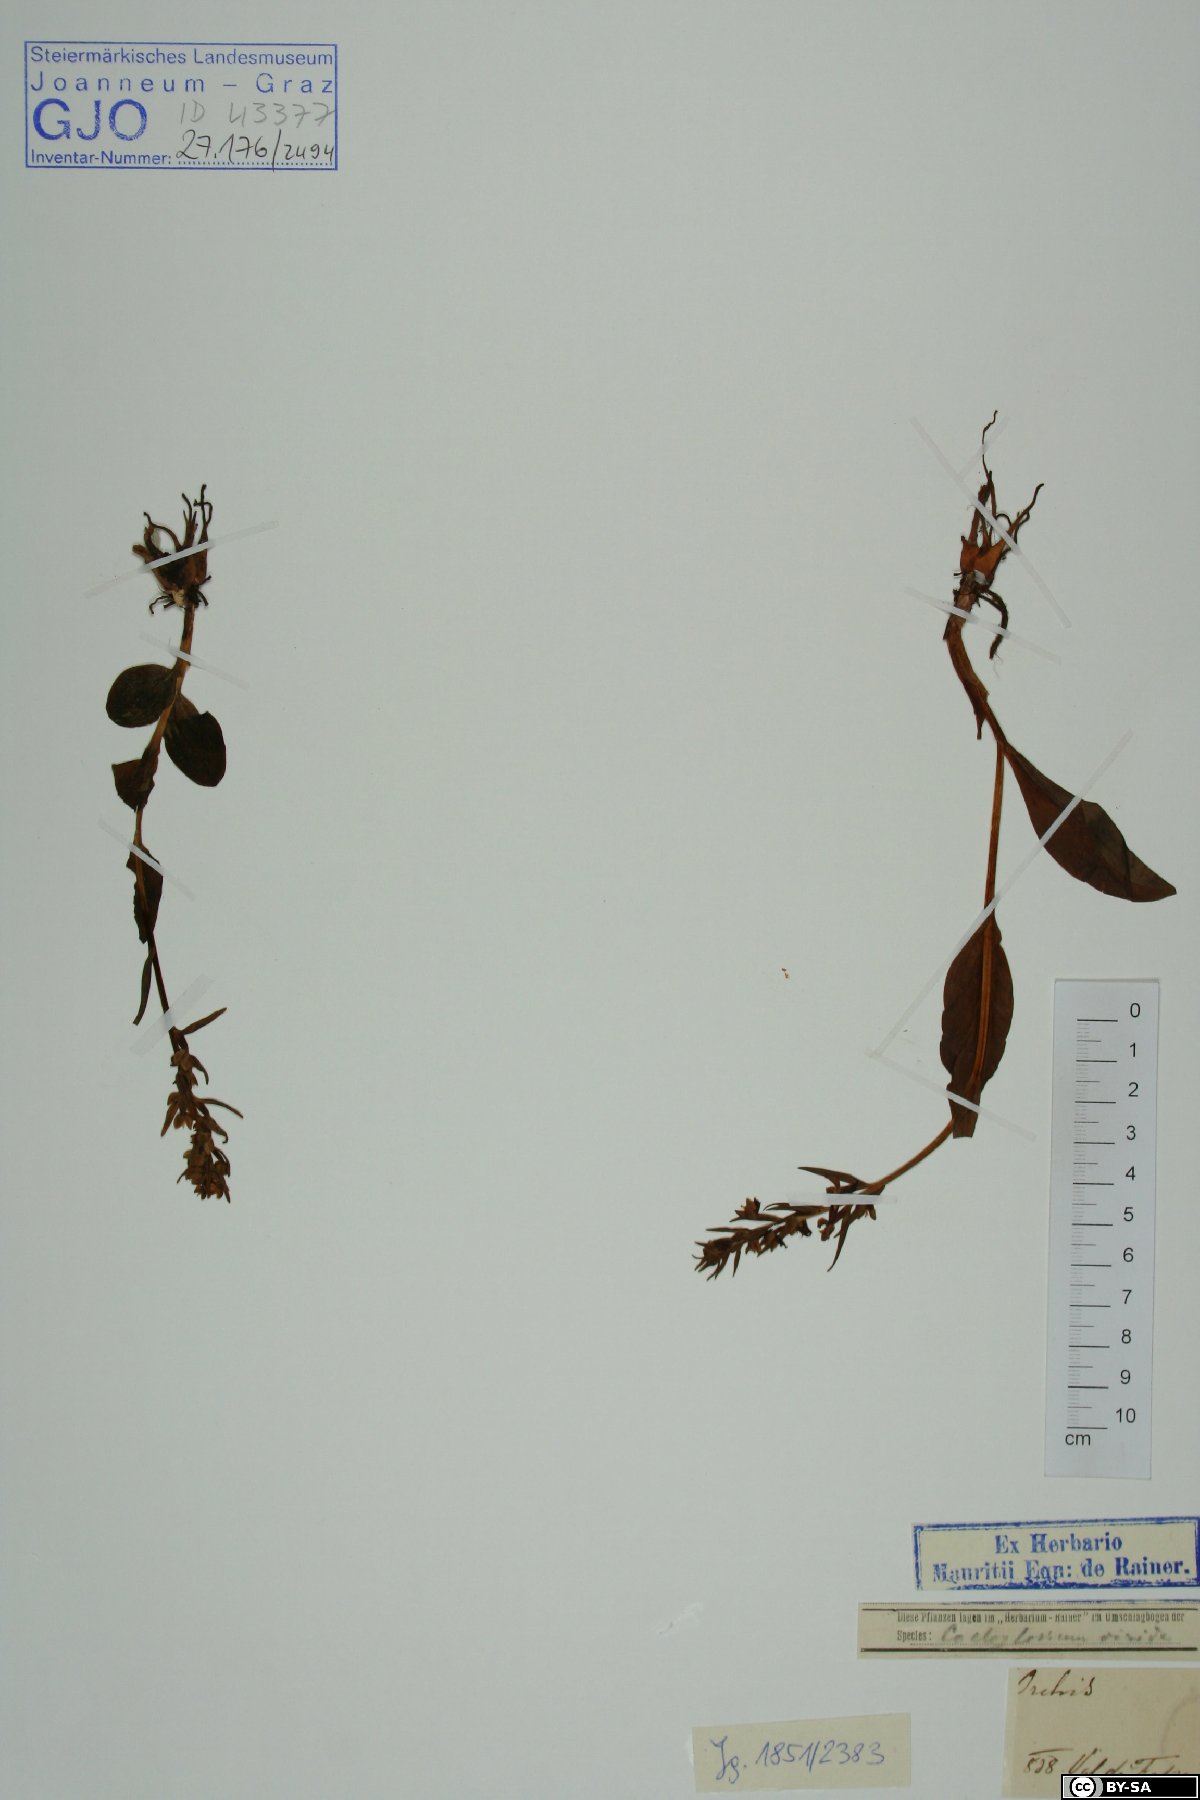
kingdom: Plantae
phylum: Tracheophyta
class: Liliopsida
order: Asparagales
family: Orchidaceae
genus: Orchis
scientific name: Orchis
